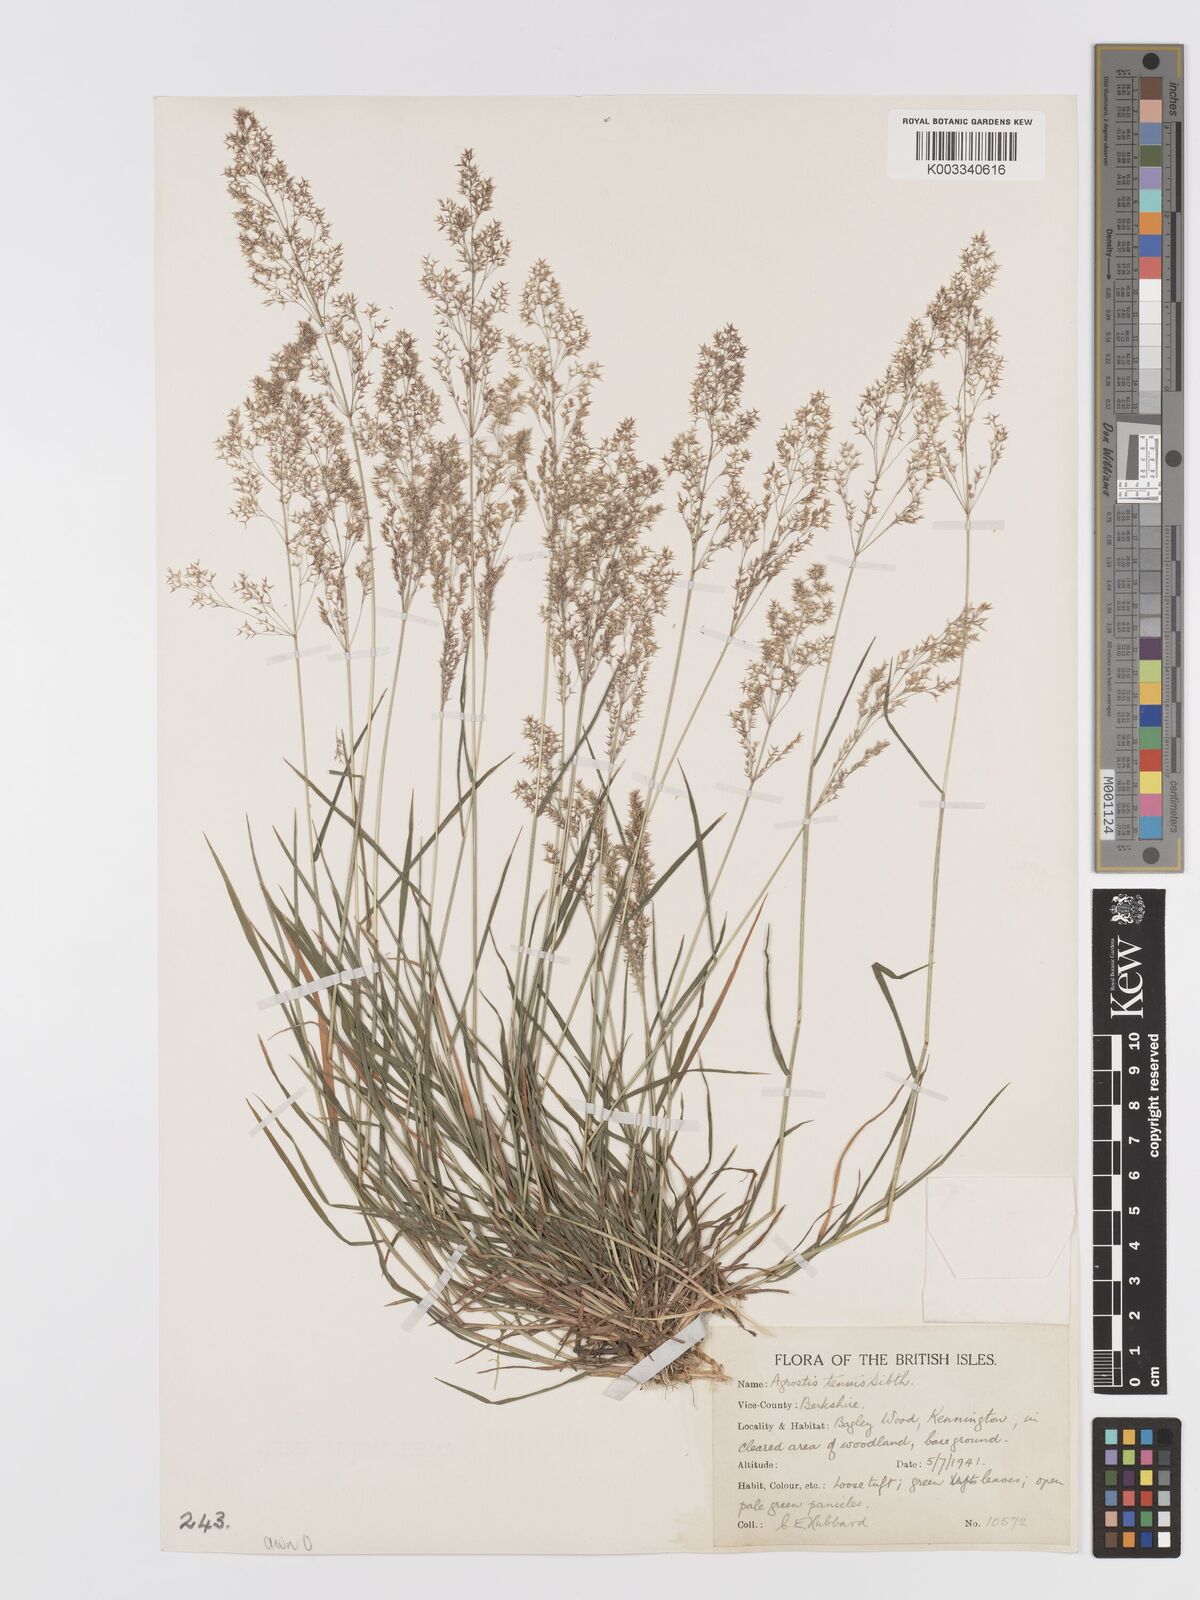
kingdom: Plantae
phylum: Tracheophyta
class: Liliopsida
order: Poales
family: Poaceae
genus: Agrostis
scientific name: Agrostis capillaris
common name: Colonial bentgrass
